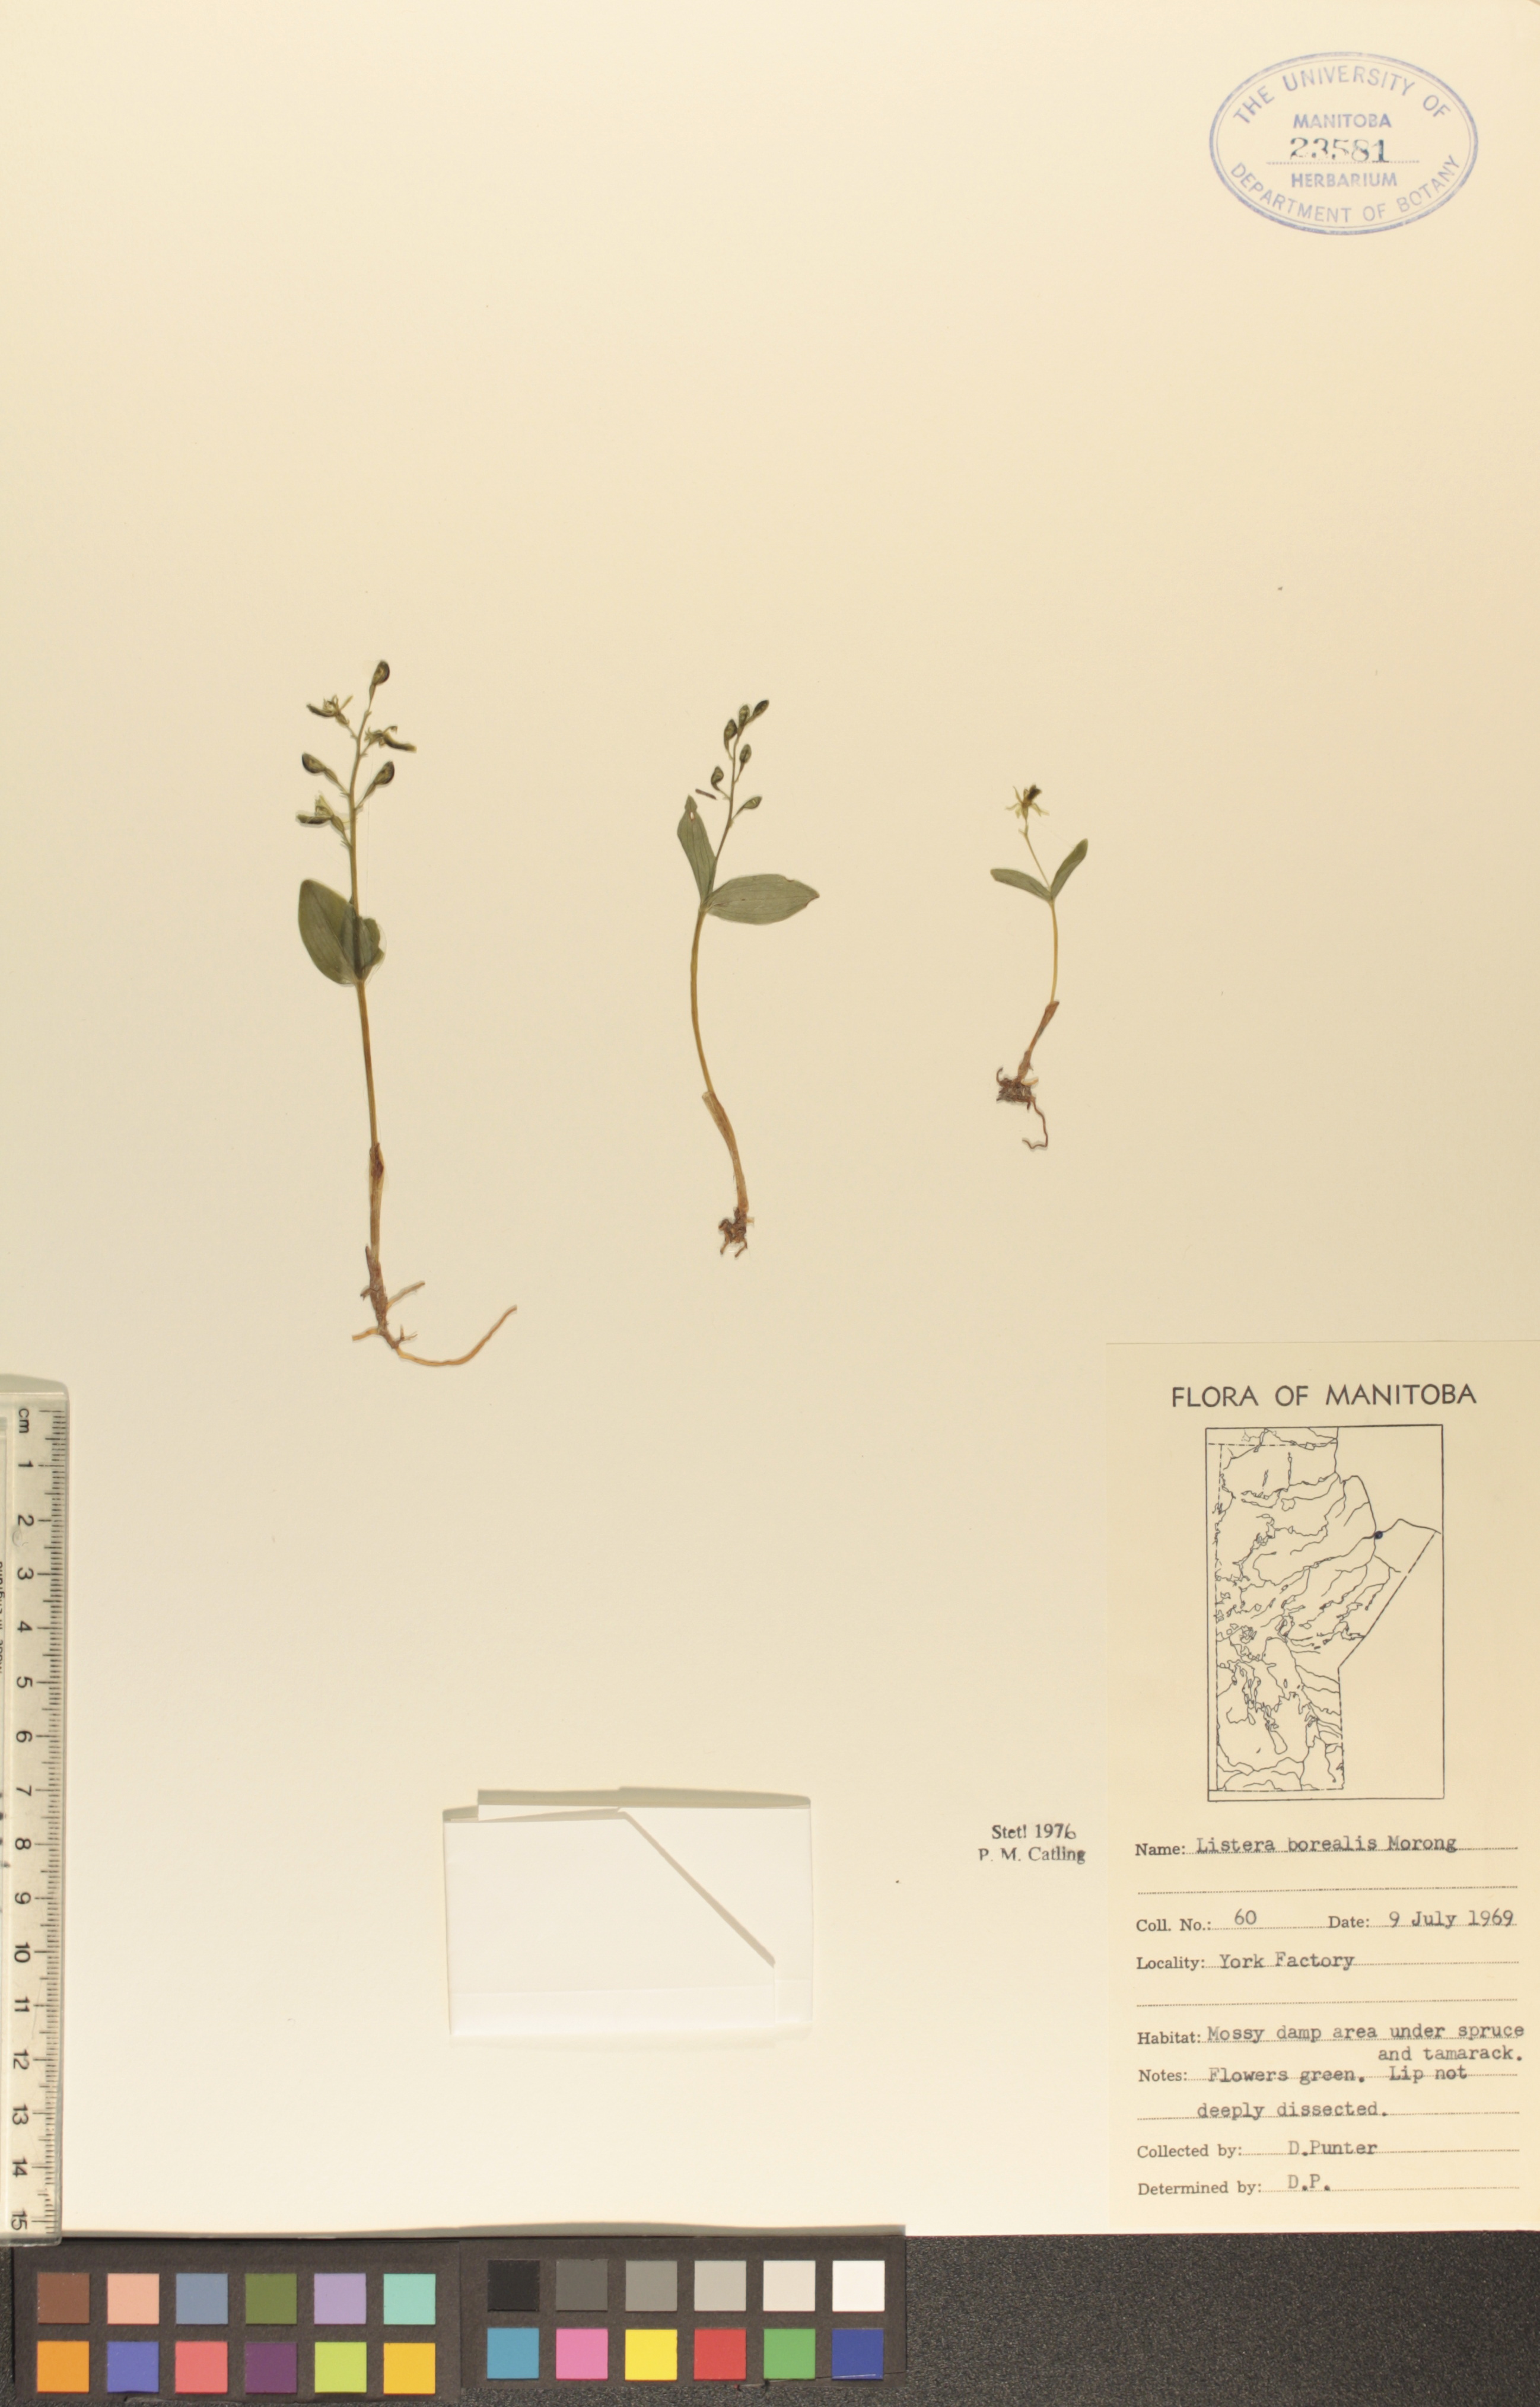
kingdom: Plantae
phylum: Tracheophyta
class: Liliopsida
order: Asparagales
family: Orchidaceae
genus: Neottia
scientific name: Neottia borealis
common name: Northern twayblade
